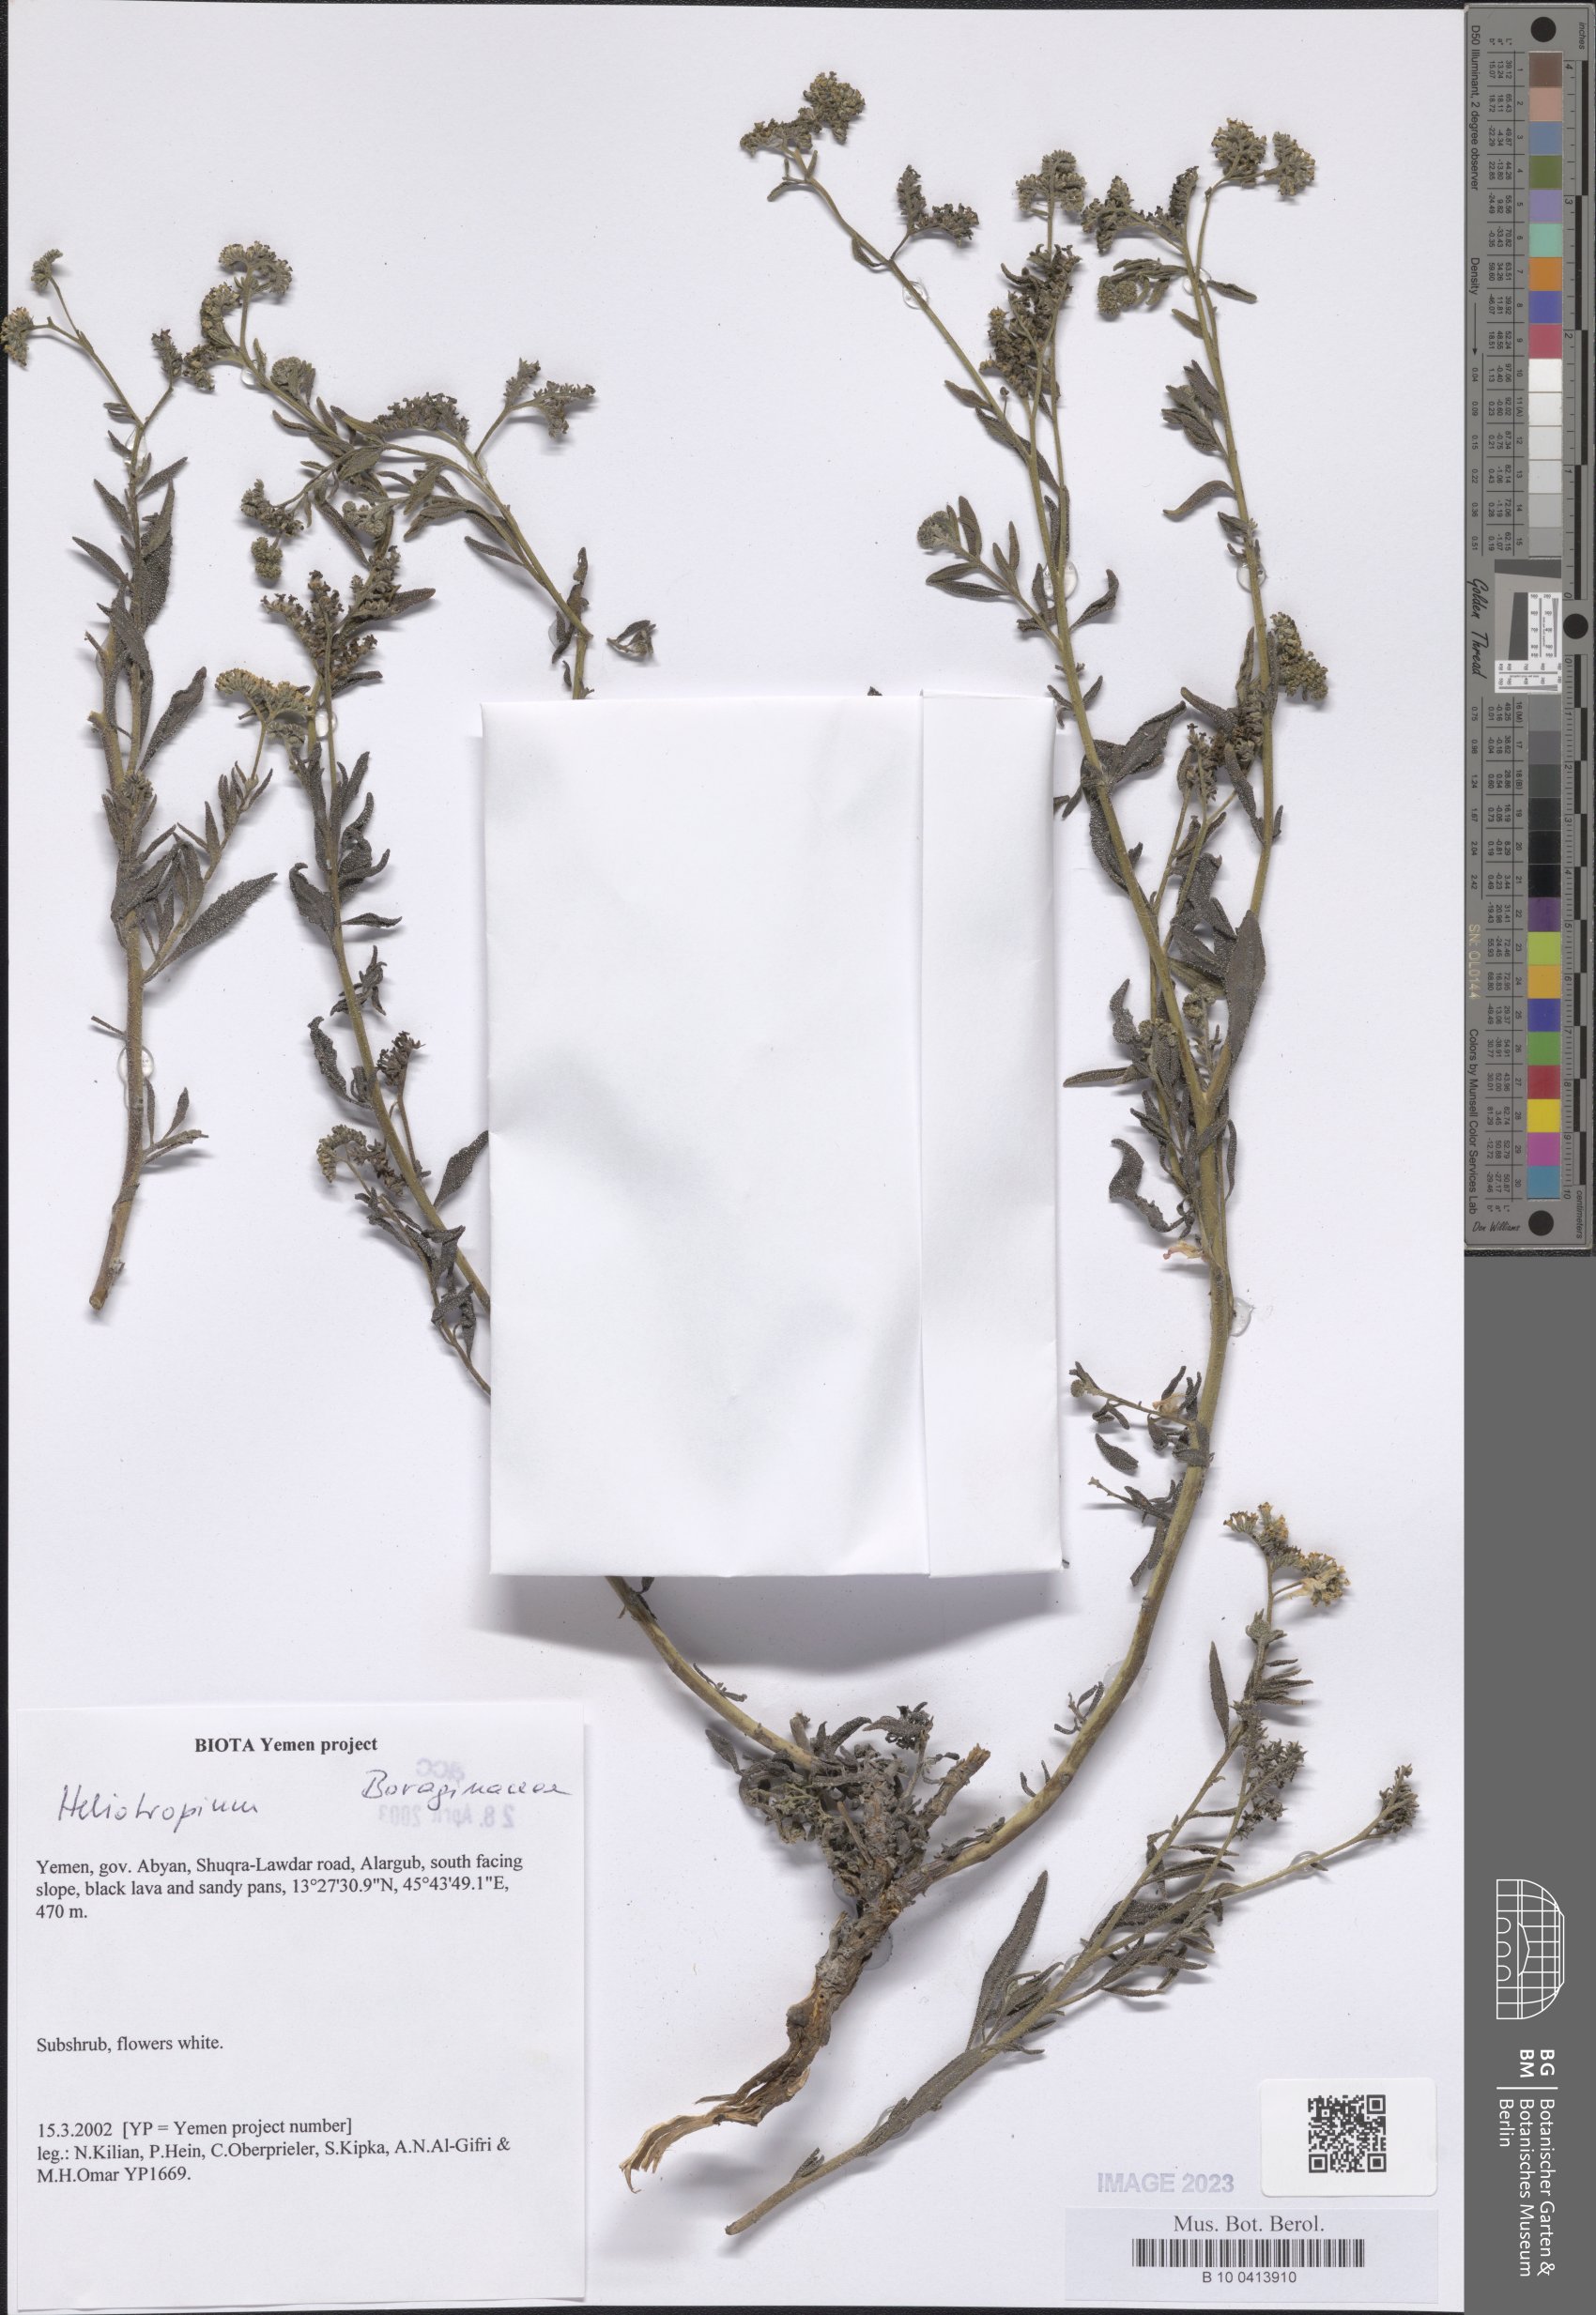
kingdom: Plantae
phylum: Tracheophyta
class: Magnoliopsida
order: Boraginales
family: Heliotropiaceae
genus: Heliotropium
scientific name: Heliotropium
